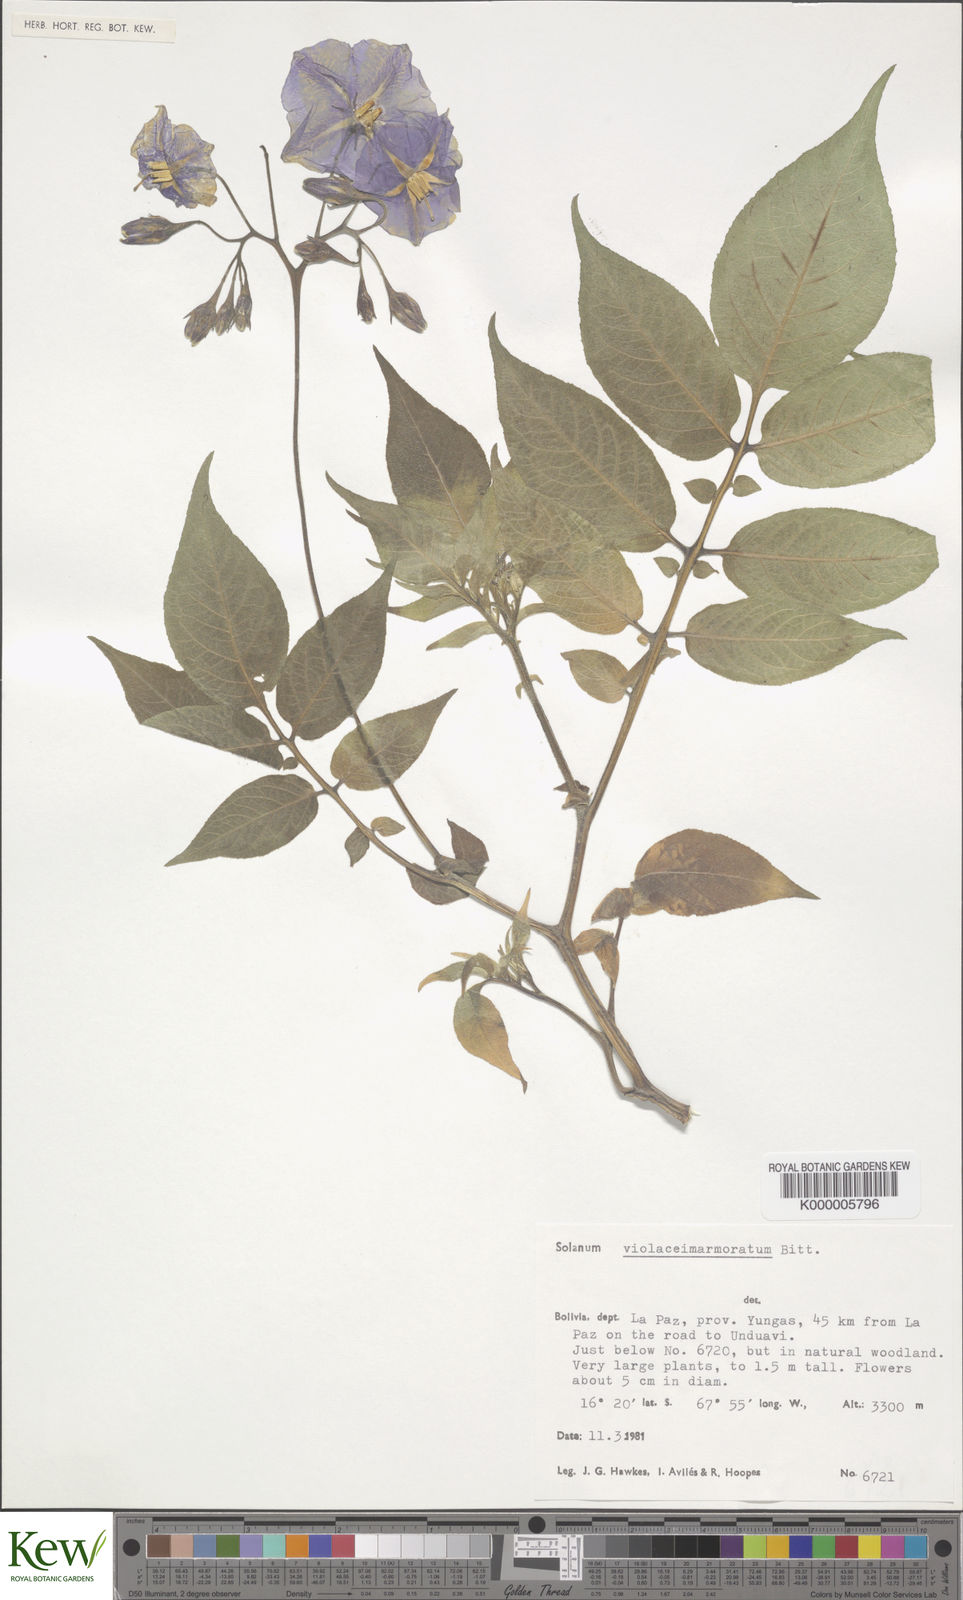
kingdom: Plantae
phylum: Tracheophyta
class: Magnoliopsida
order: Solanales
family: Solanaceae
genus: Solanum
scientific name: Solanum violaceimarmoratum
